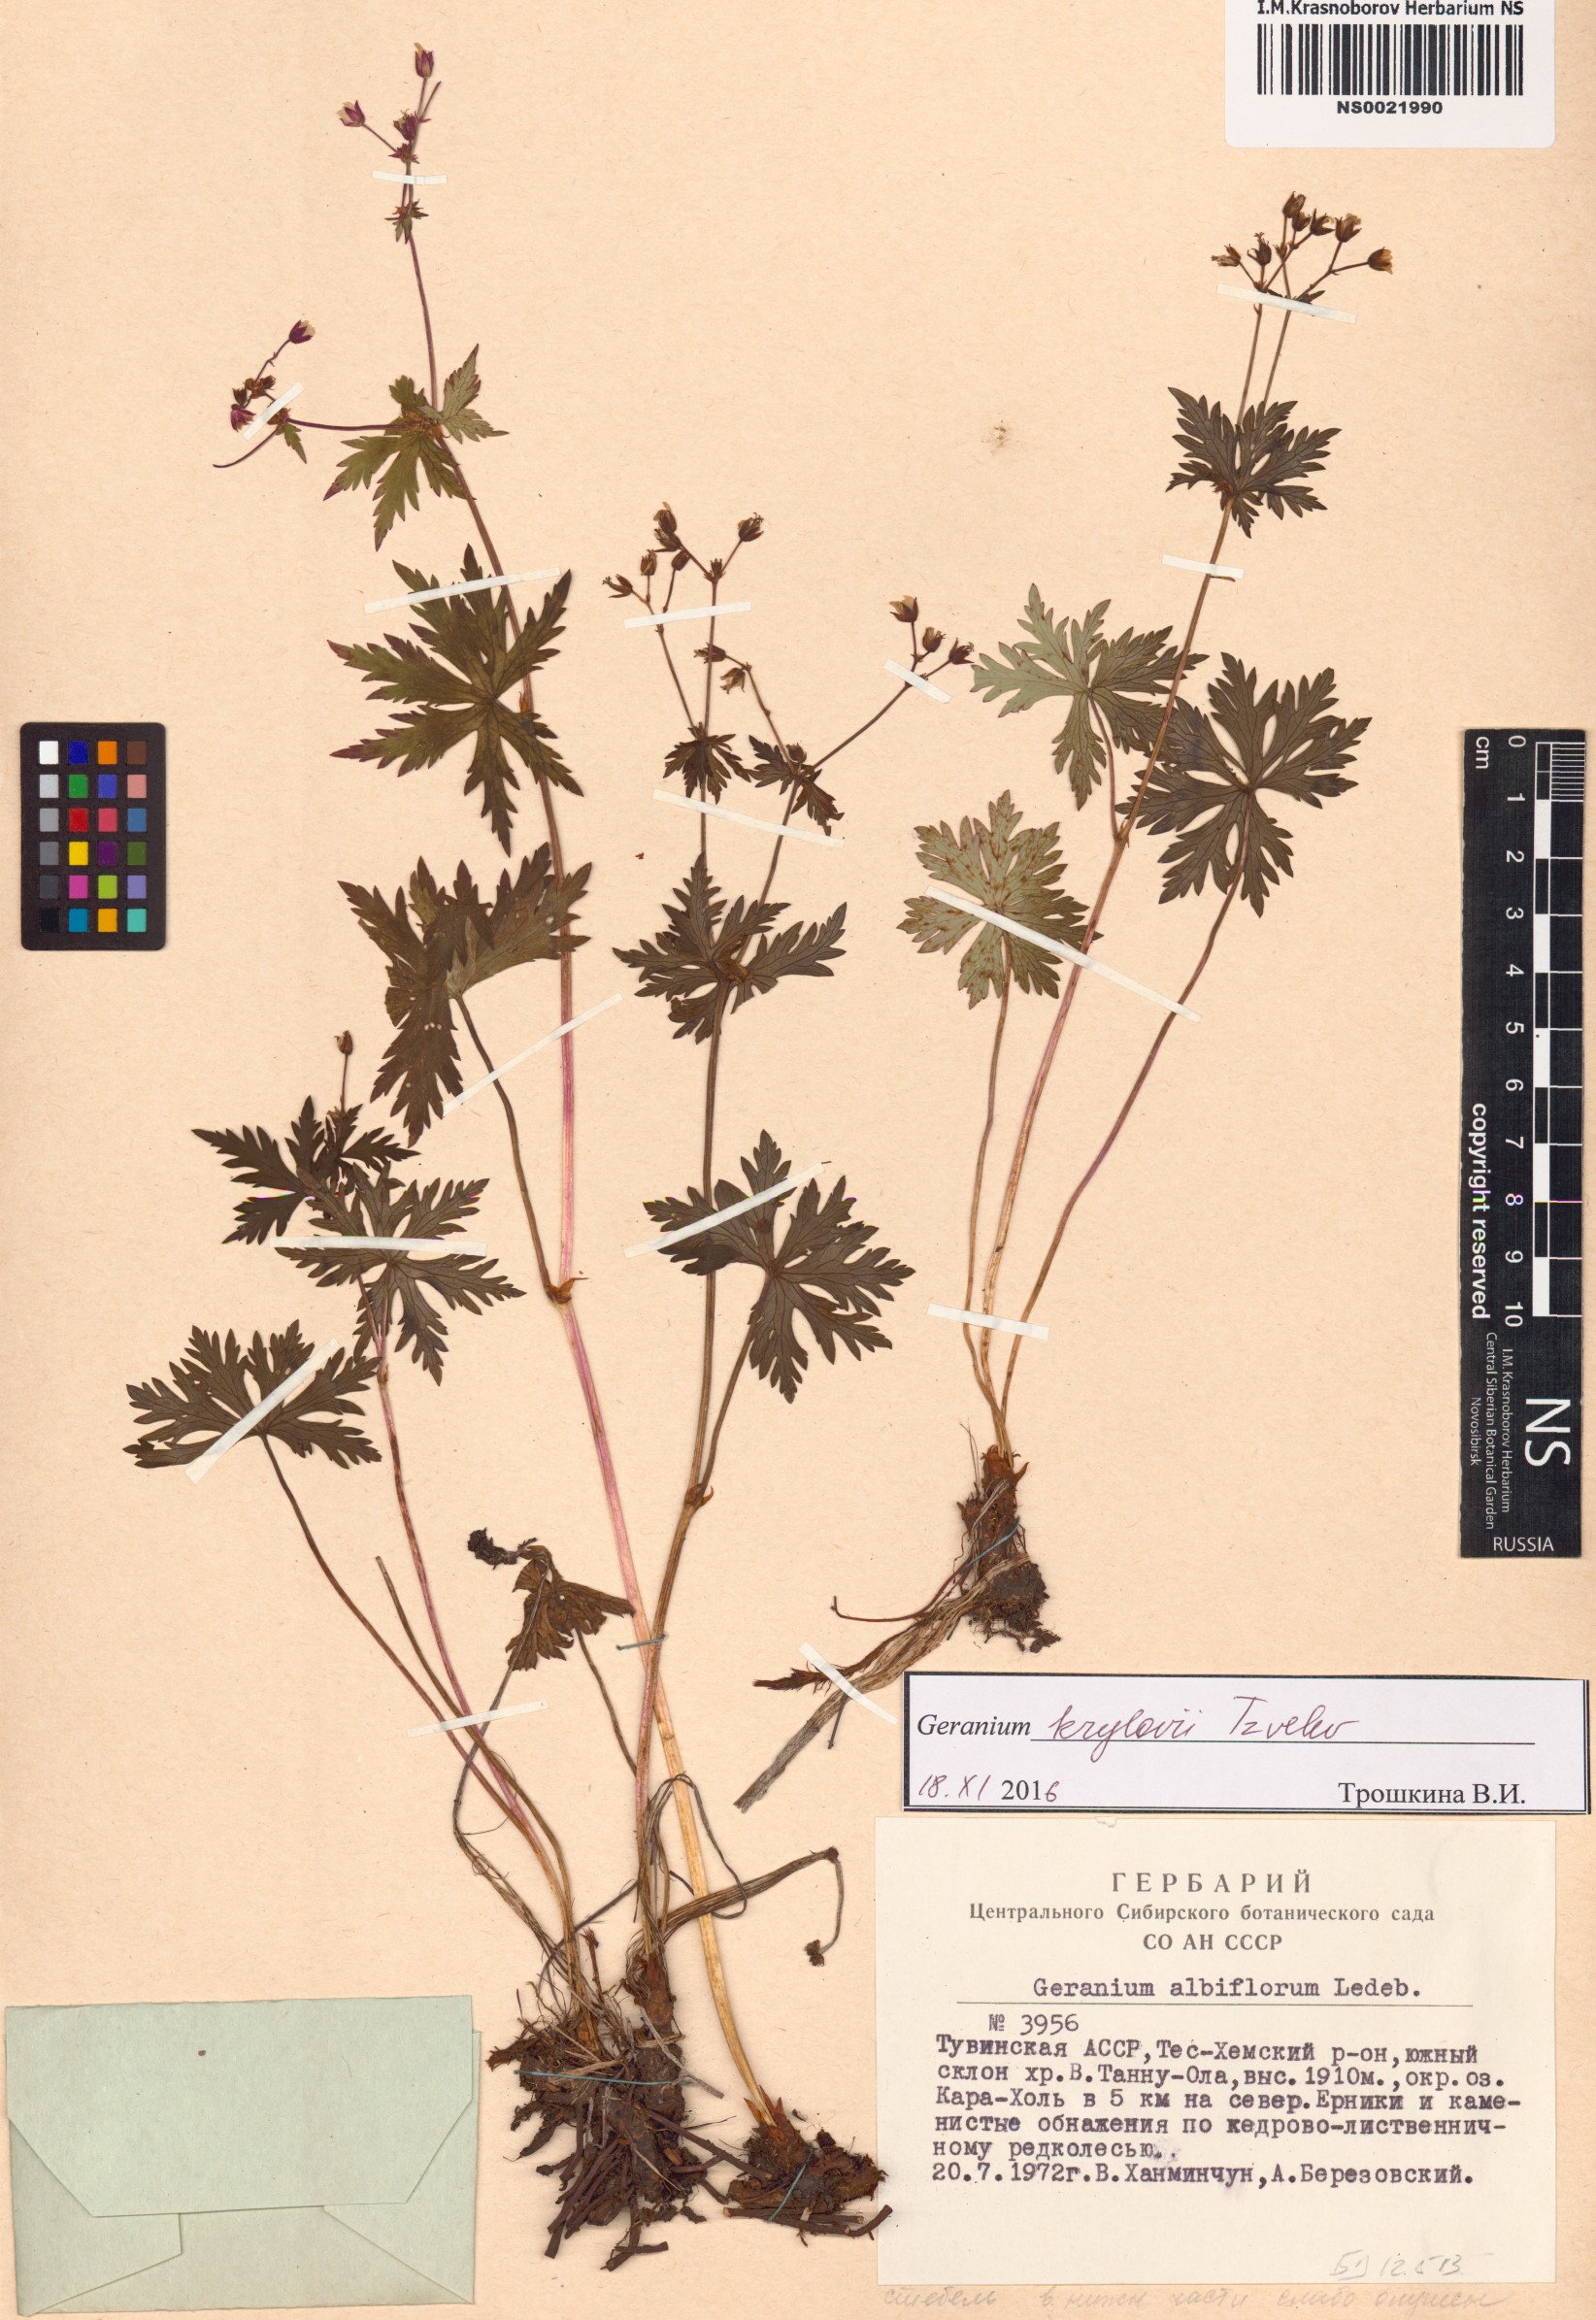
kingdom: Plantae
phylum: Tracheophyta
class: Magnoliopsida
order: Geraniales
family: Geraniaceae
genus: Geranium
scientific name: Geranium sylvaticum
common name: Wood crane's-bill
